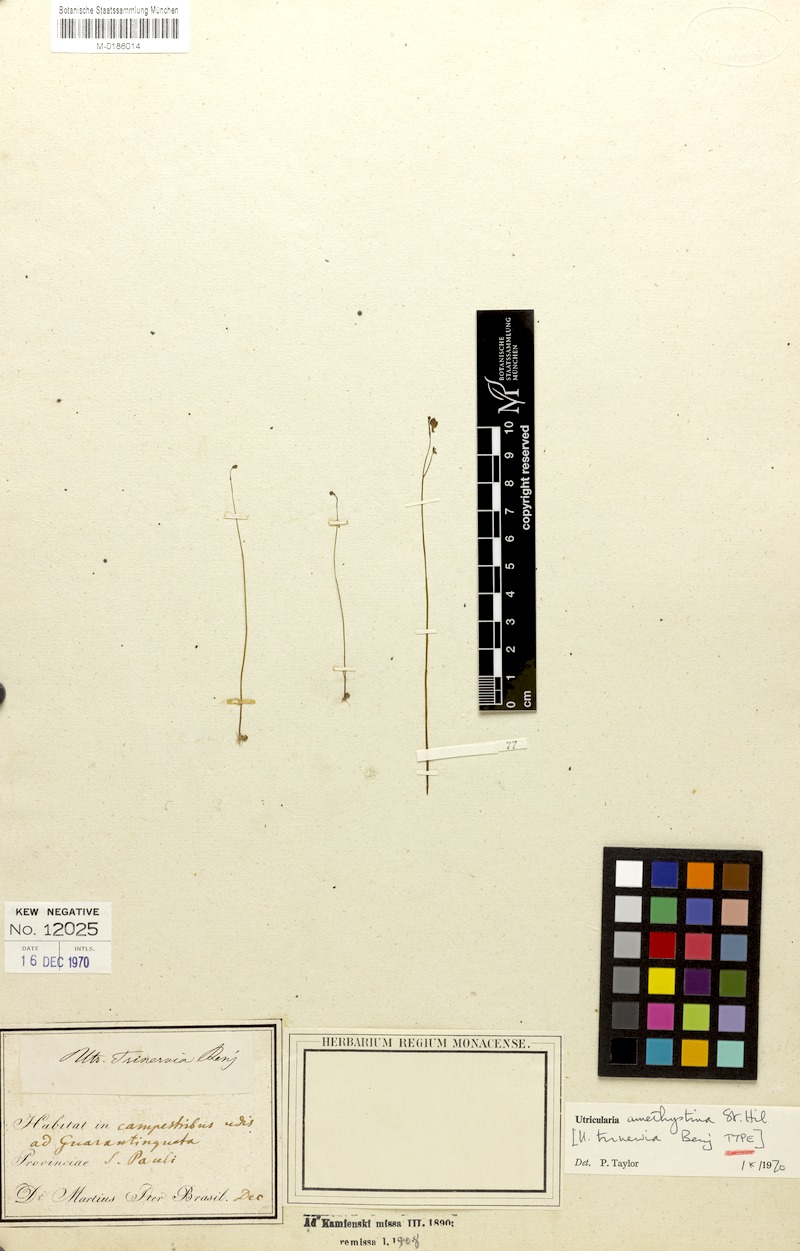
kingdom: Plantae
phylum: Tracheophyta
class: Magnoliopsida
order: Lamiales
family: Lentibulariaceae
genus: Utricularia
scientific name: Utricularia amethystina
